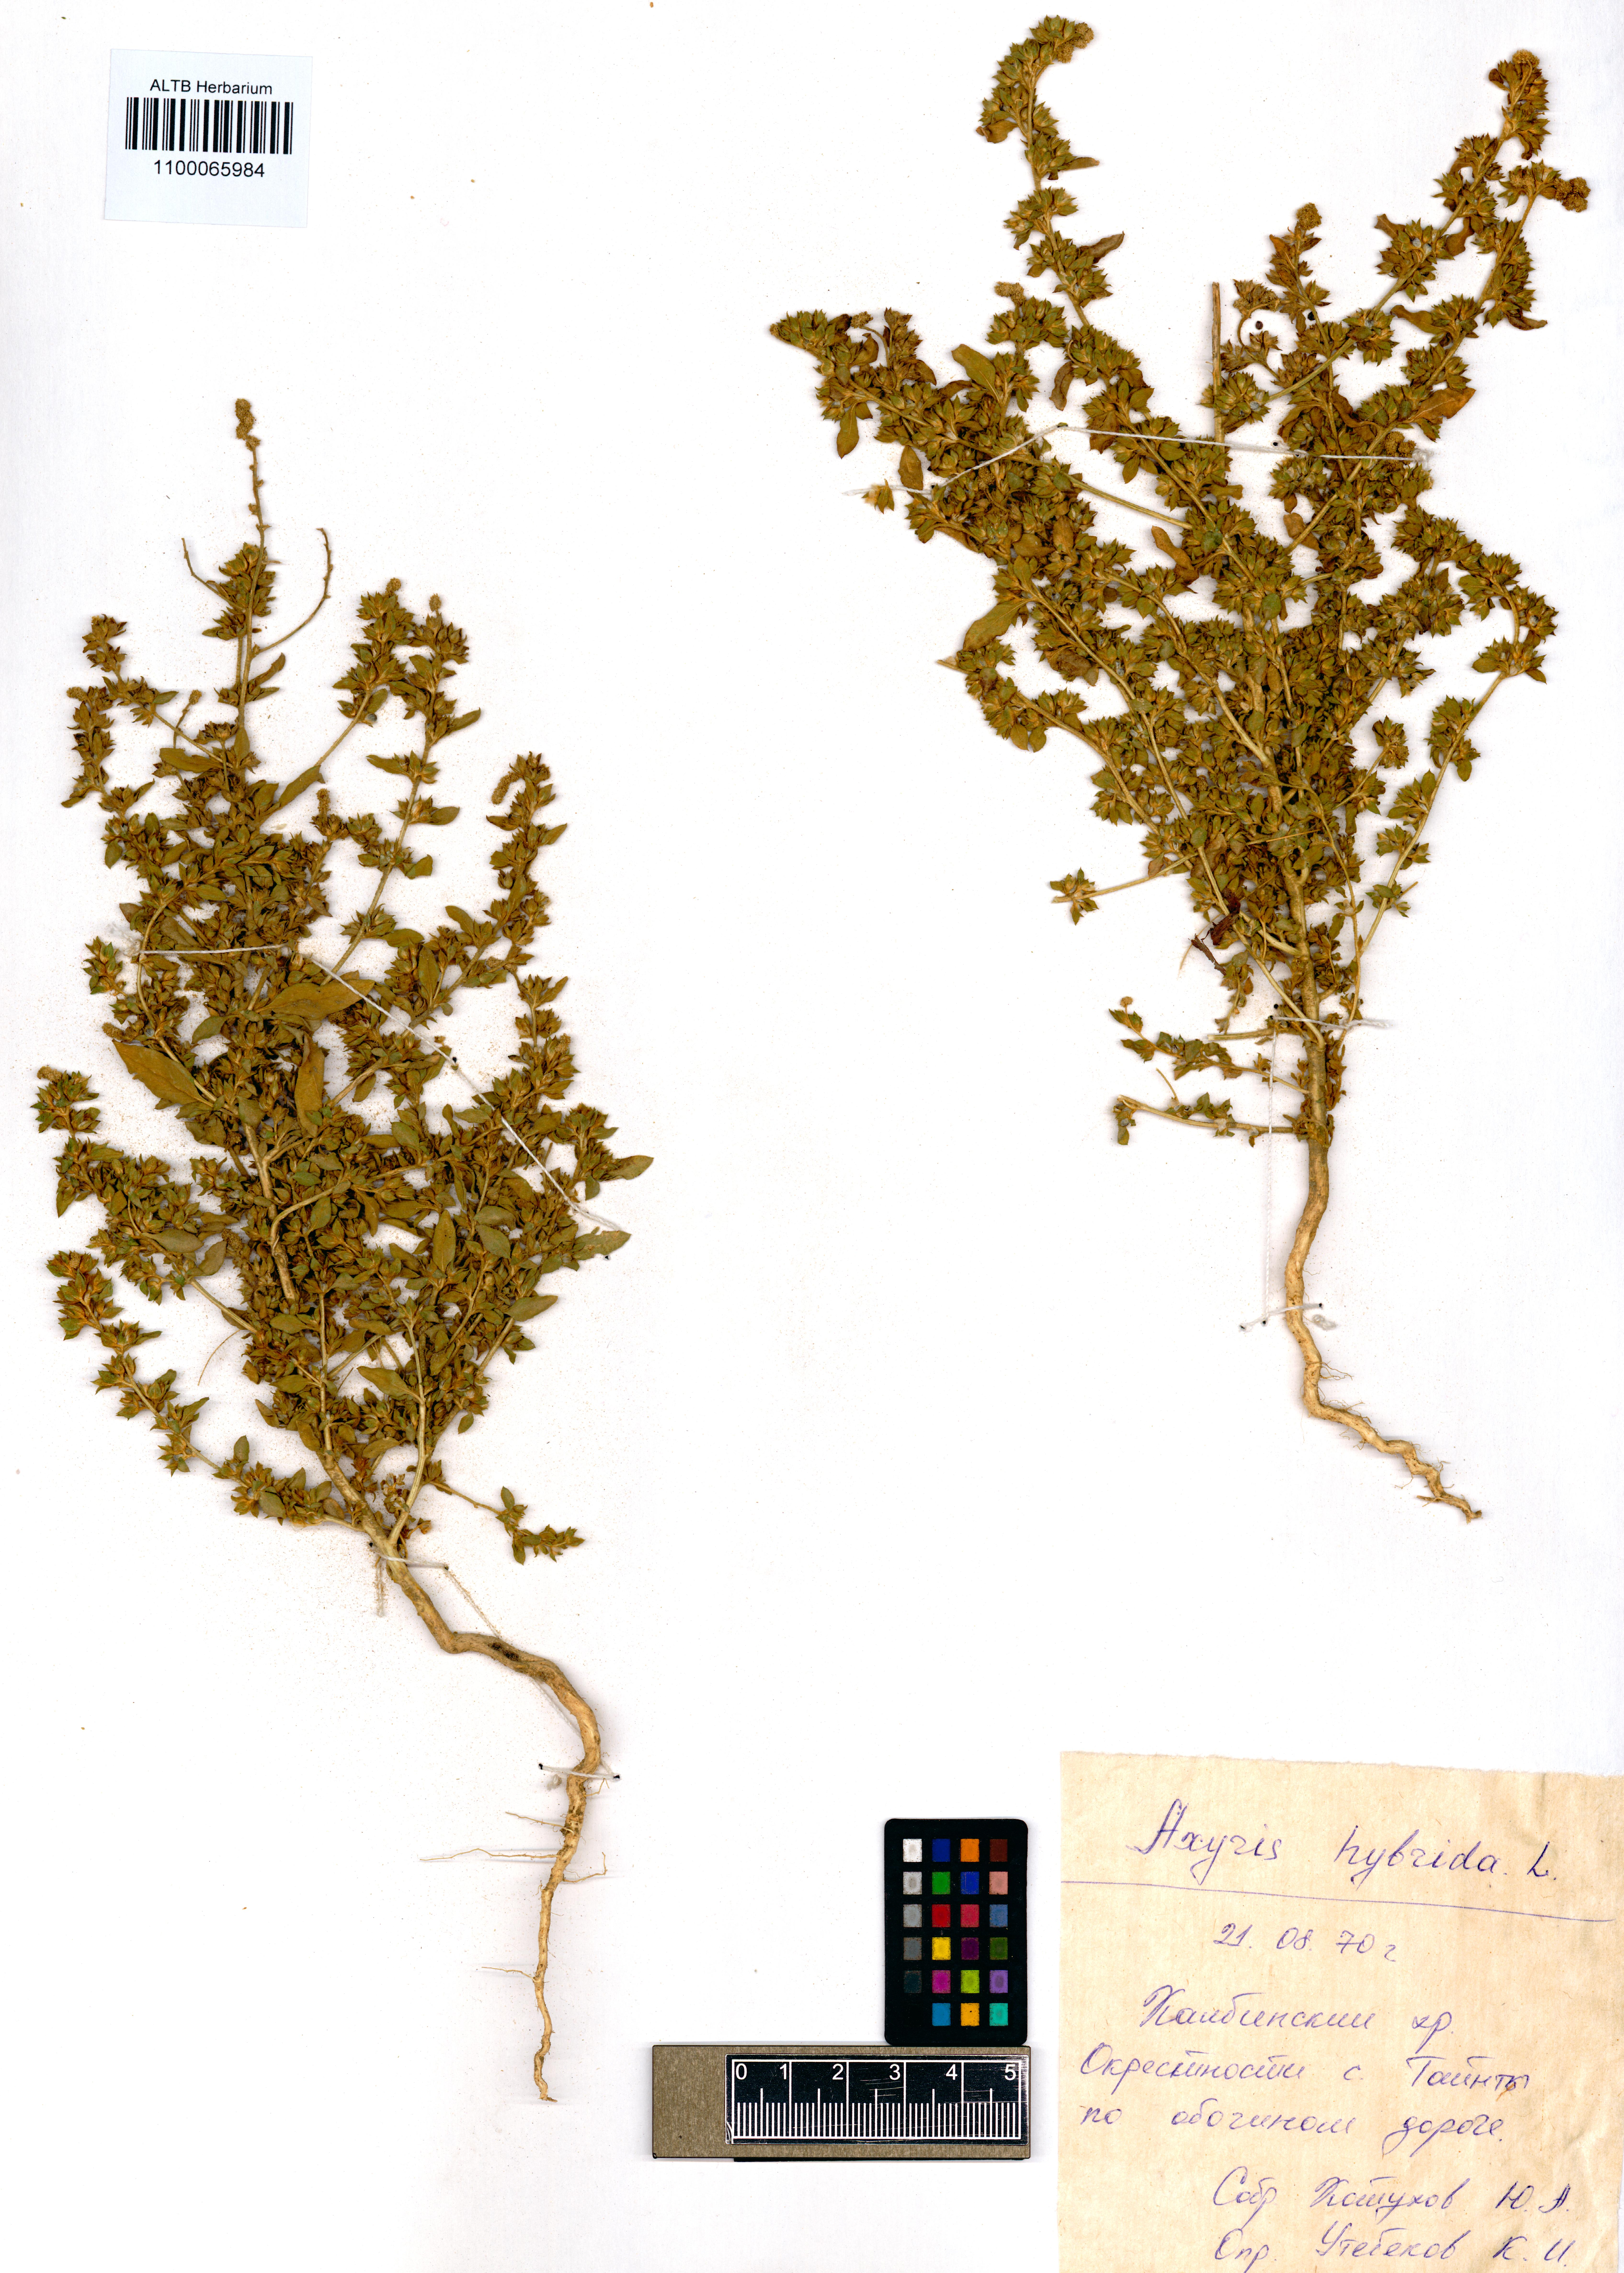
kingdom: Plantae
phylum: Tracheophyta
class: Magnoliopsida
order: Caryophyllales
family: Amaranthaceae
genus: Axyris
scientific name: Axyris hybrida
